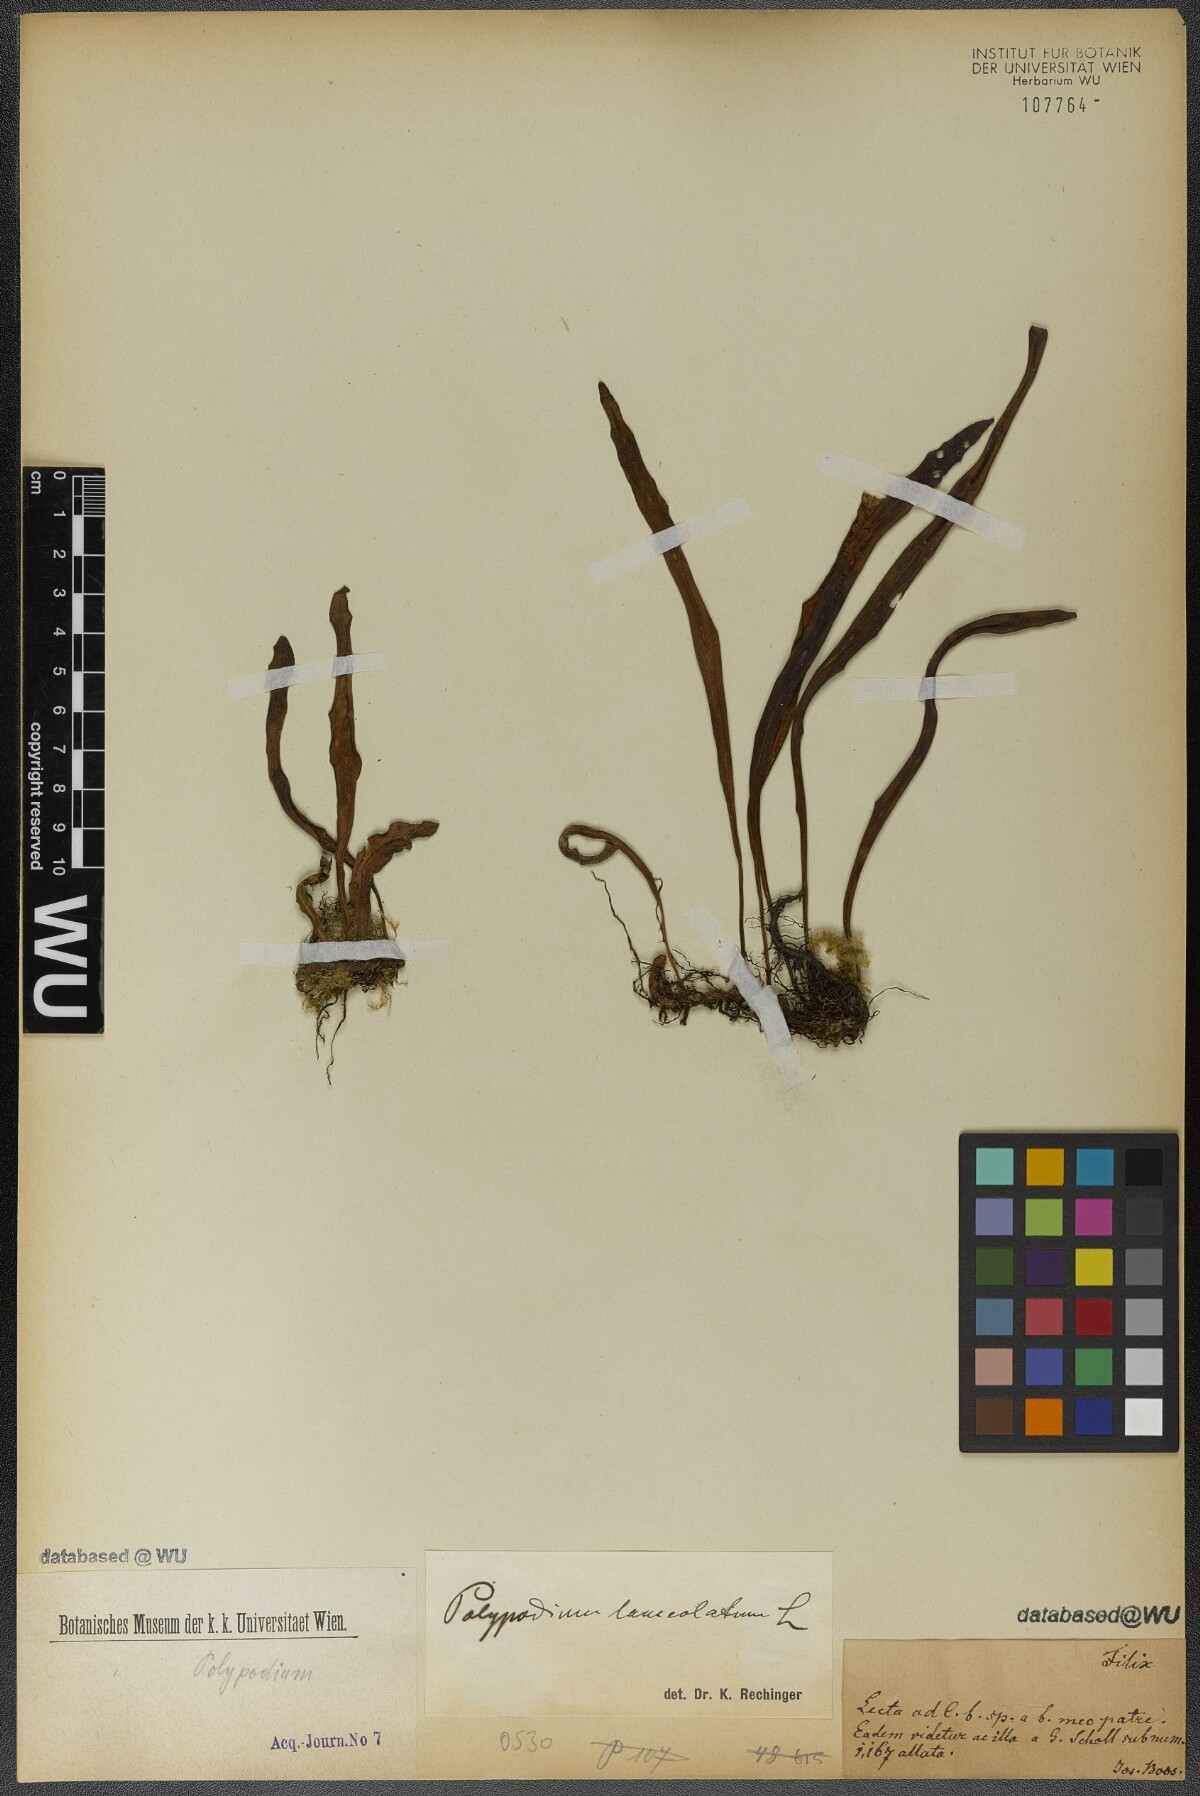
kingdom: Plantae
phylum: Tracheophyta
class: Polypodiopsida
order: Polypodiales
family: Polypodiaceae
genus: Pleopeltis
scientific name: Pleopeltis macrocarpa
